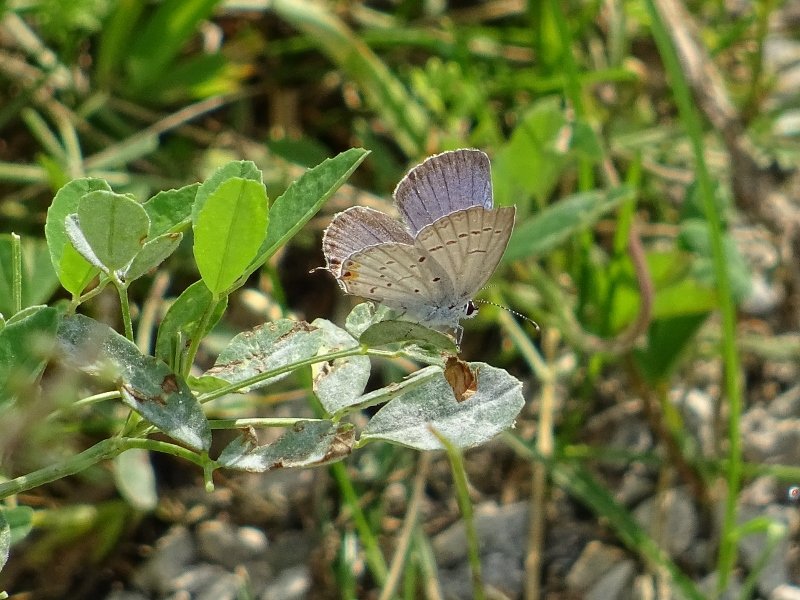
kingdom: Animalia
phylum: Arthropoda
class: Insecta
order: Lepidoptera
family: Lycaenidae
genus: Elkalyce
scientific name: Elkalyce comyntas
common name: Eastern Tailed-Blue
